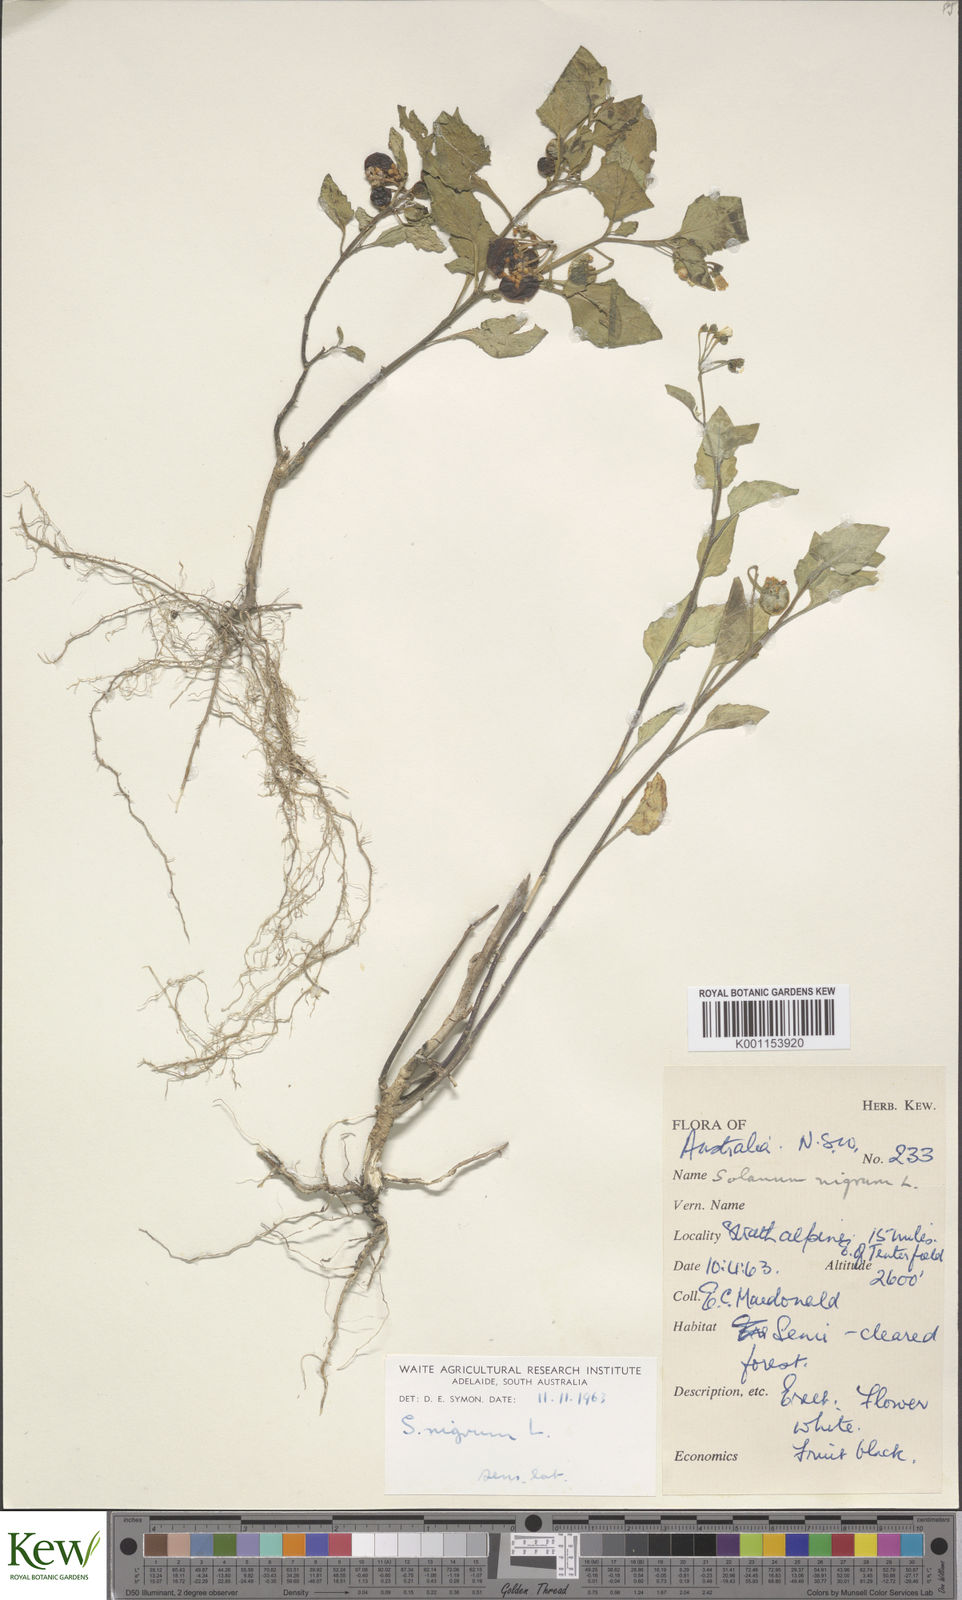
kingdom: Plantae
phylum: Tracheophyta
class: Magnoliopsida
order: Solanales
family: Solanaceae
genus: Solanum
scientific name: Solanum nigrum
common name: Black nightshade
